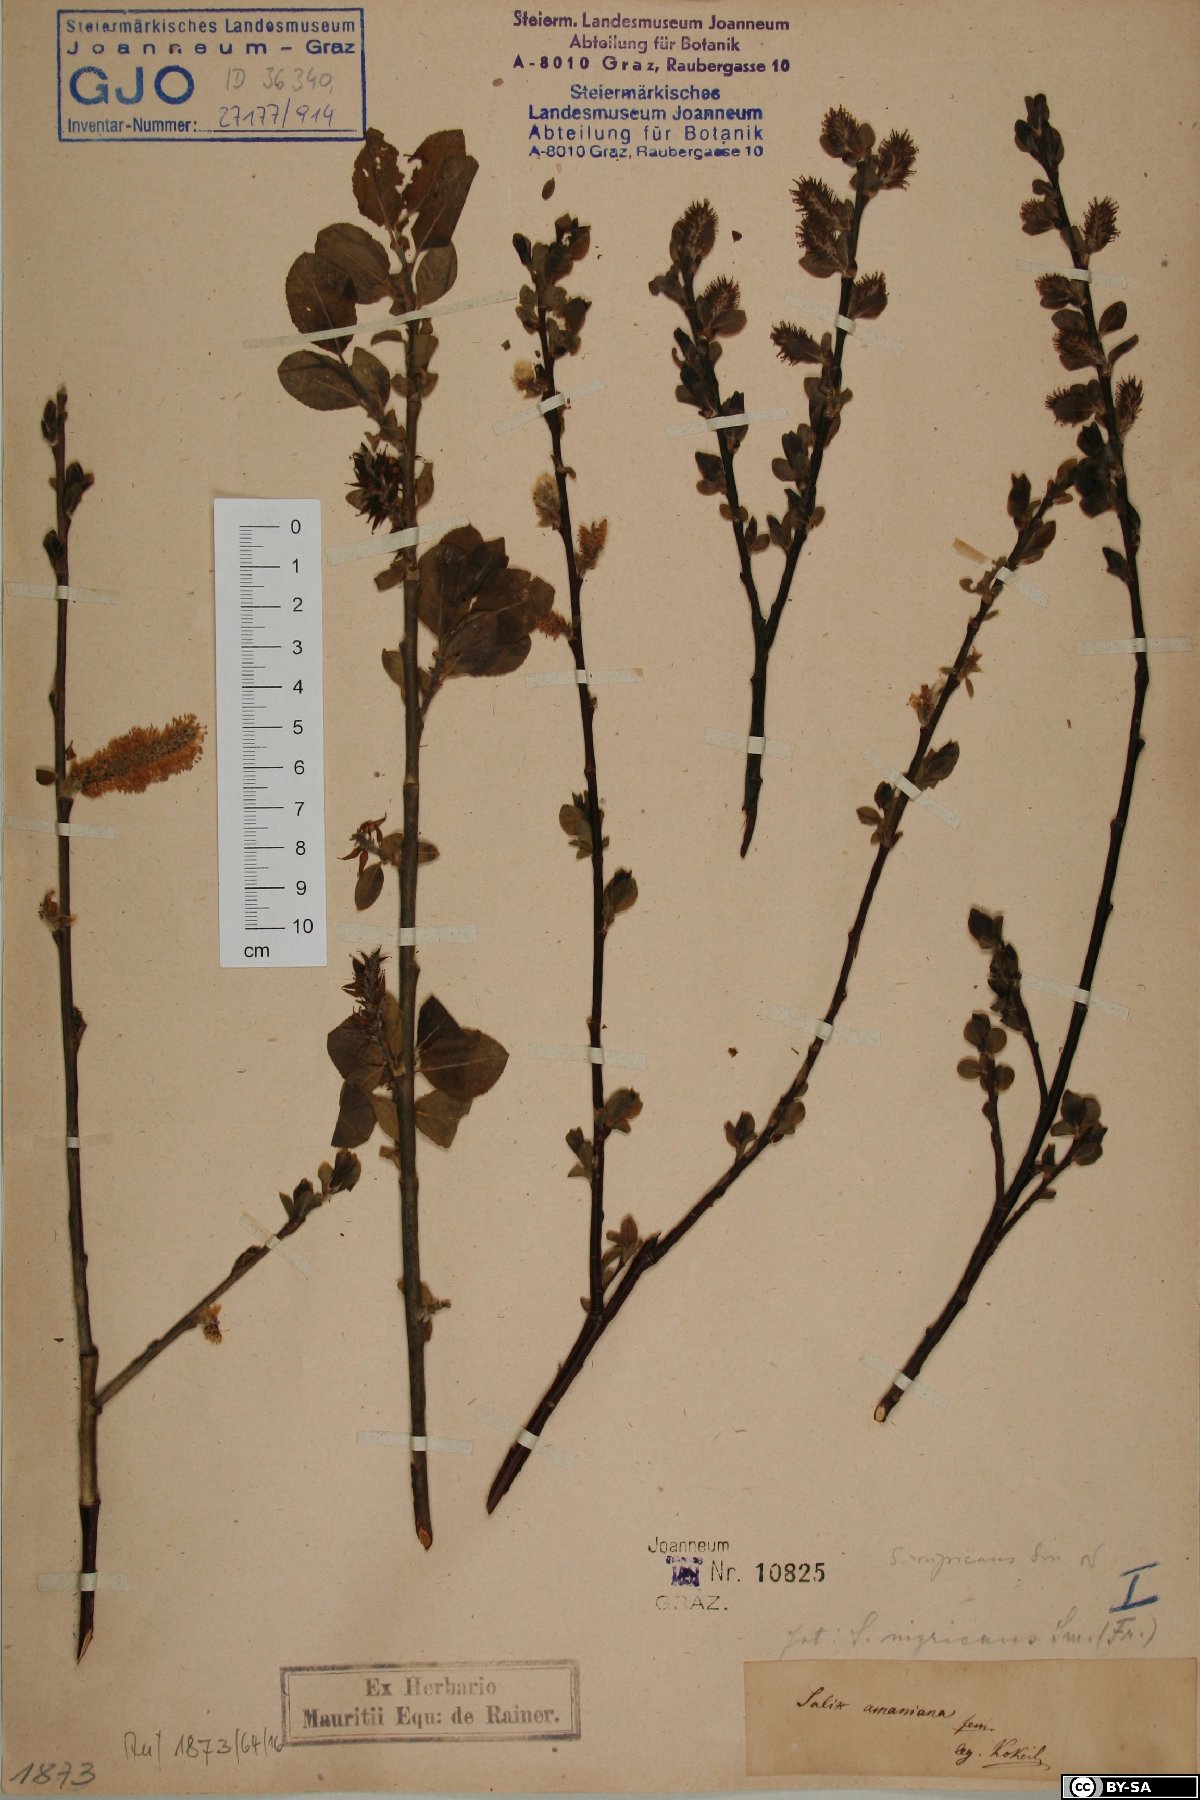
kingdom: Plantae
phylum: Tracheophyta
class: Magnoliopsida
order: Malpighiales
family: Salicaceae
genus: Salix
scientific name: Salix myrsinifolia
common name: Dark-leaved willow
